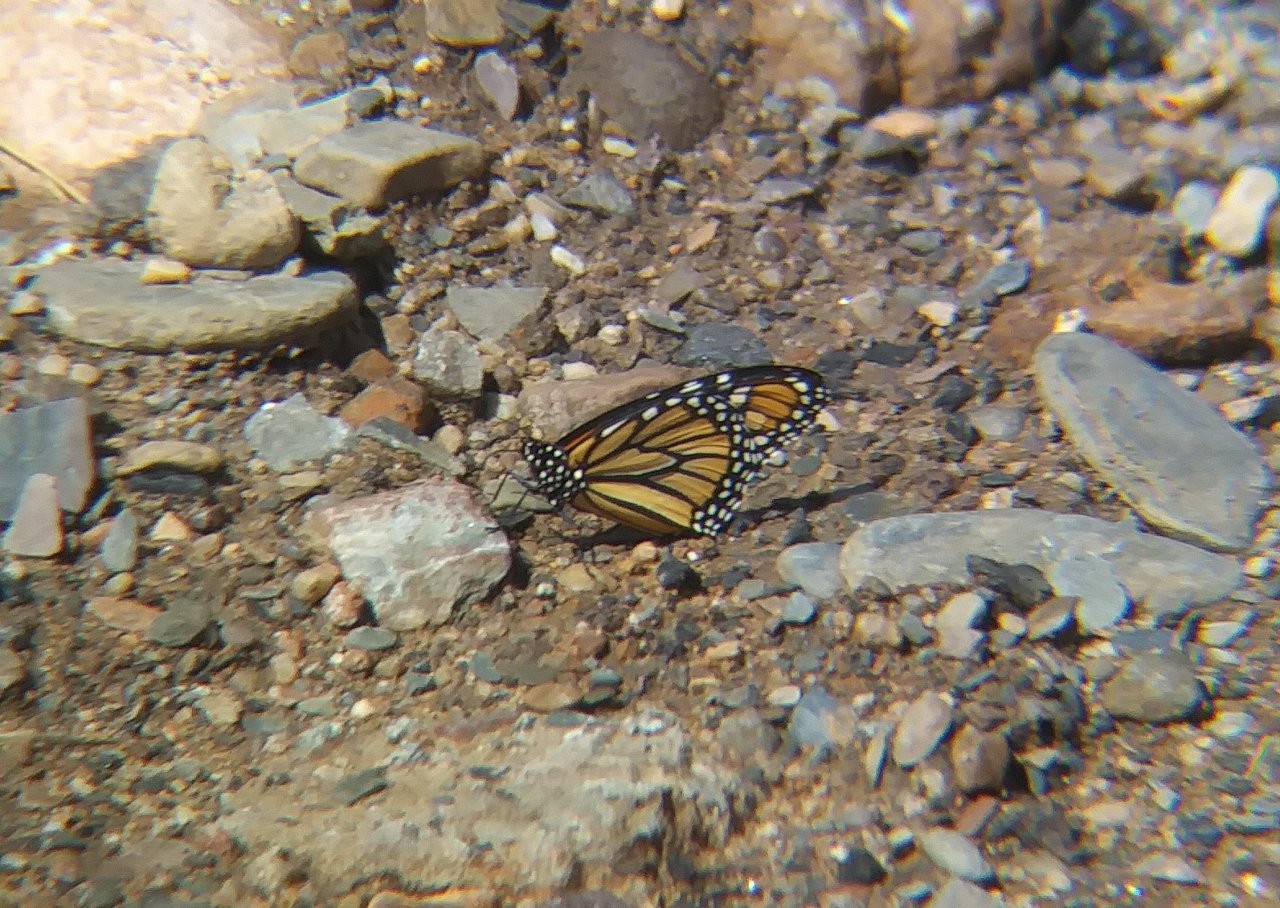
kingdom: Animalia
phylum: Arthropoda
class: Insecta
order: Lepidoptera
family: Nymphalidae
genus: Danaus
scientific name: Danaus plexippus
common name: Monarch
